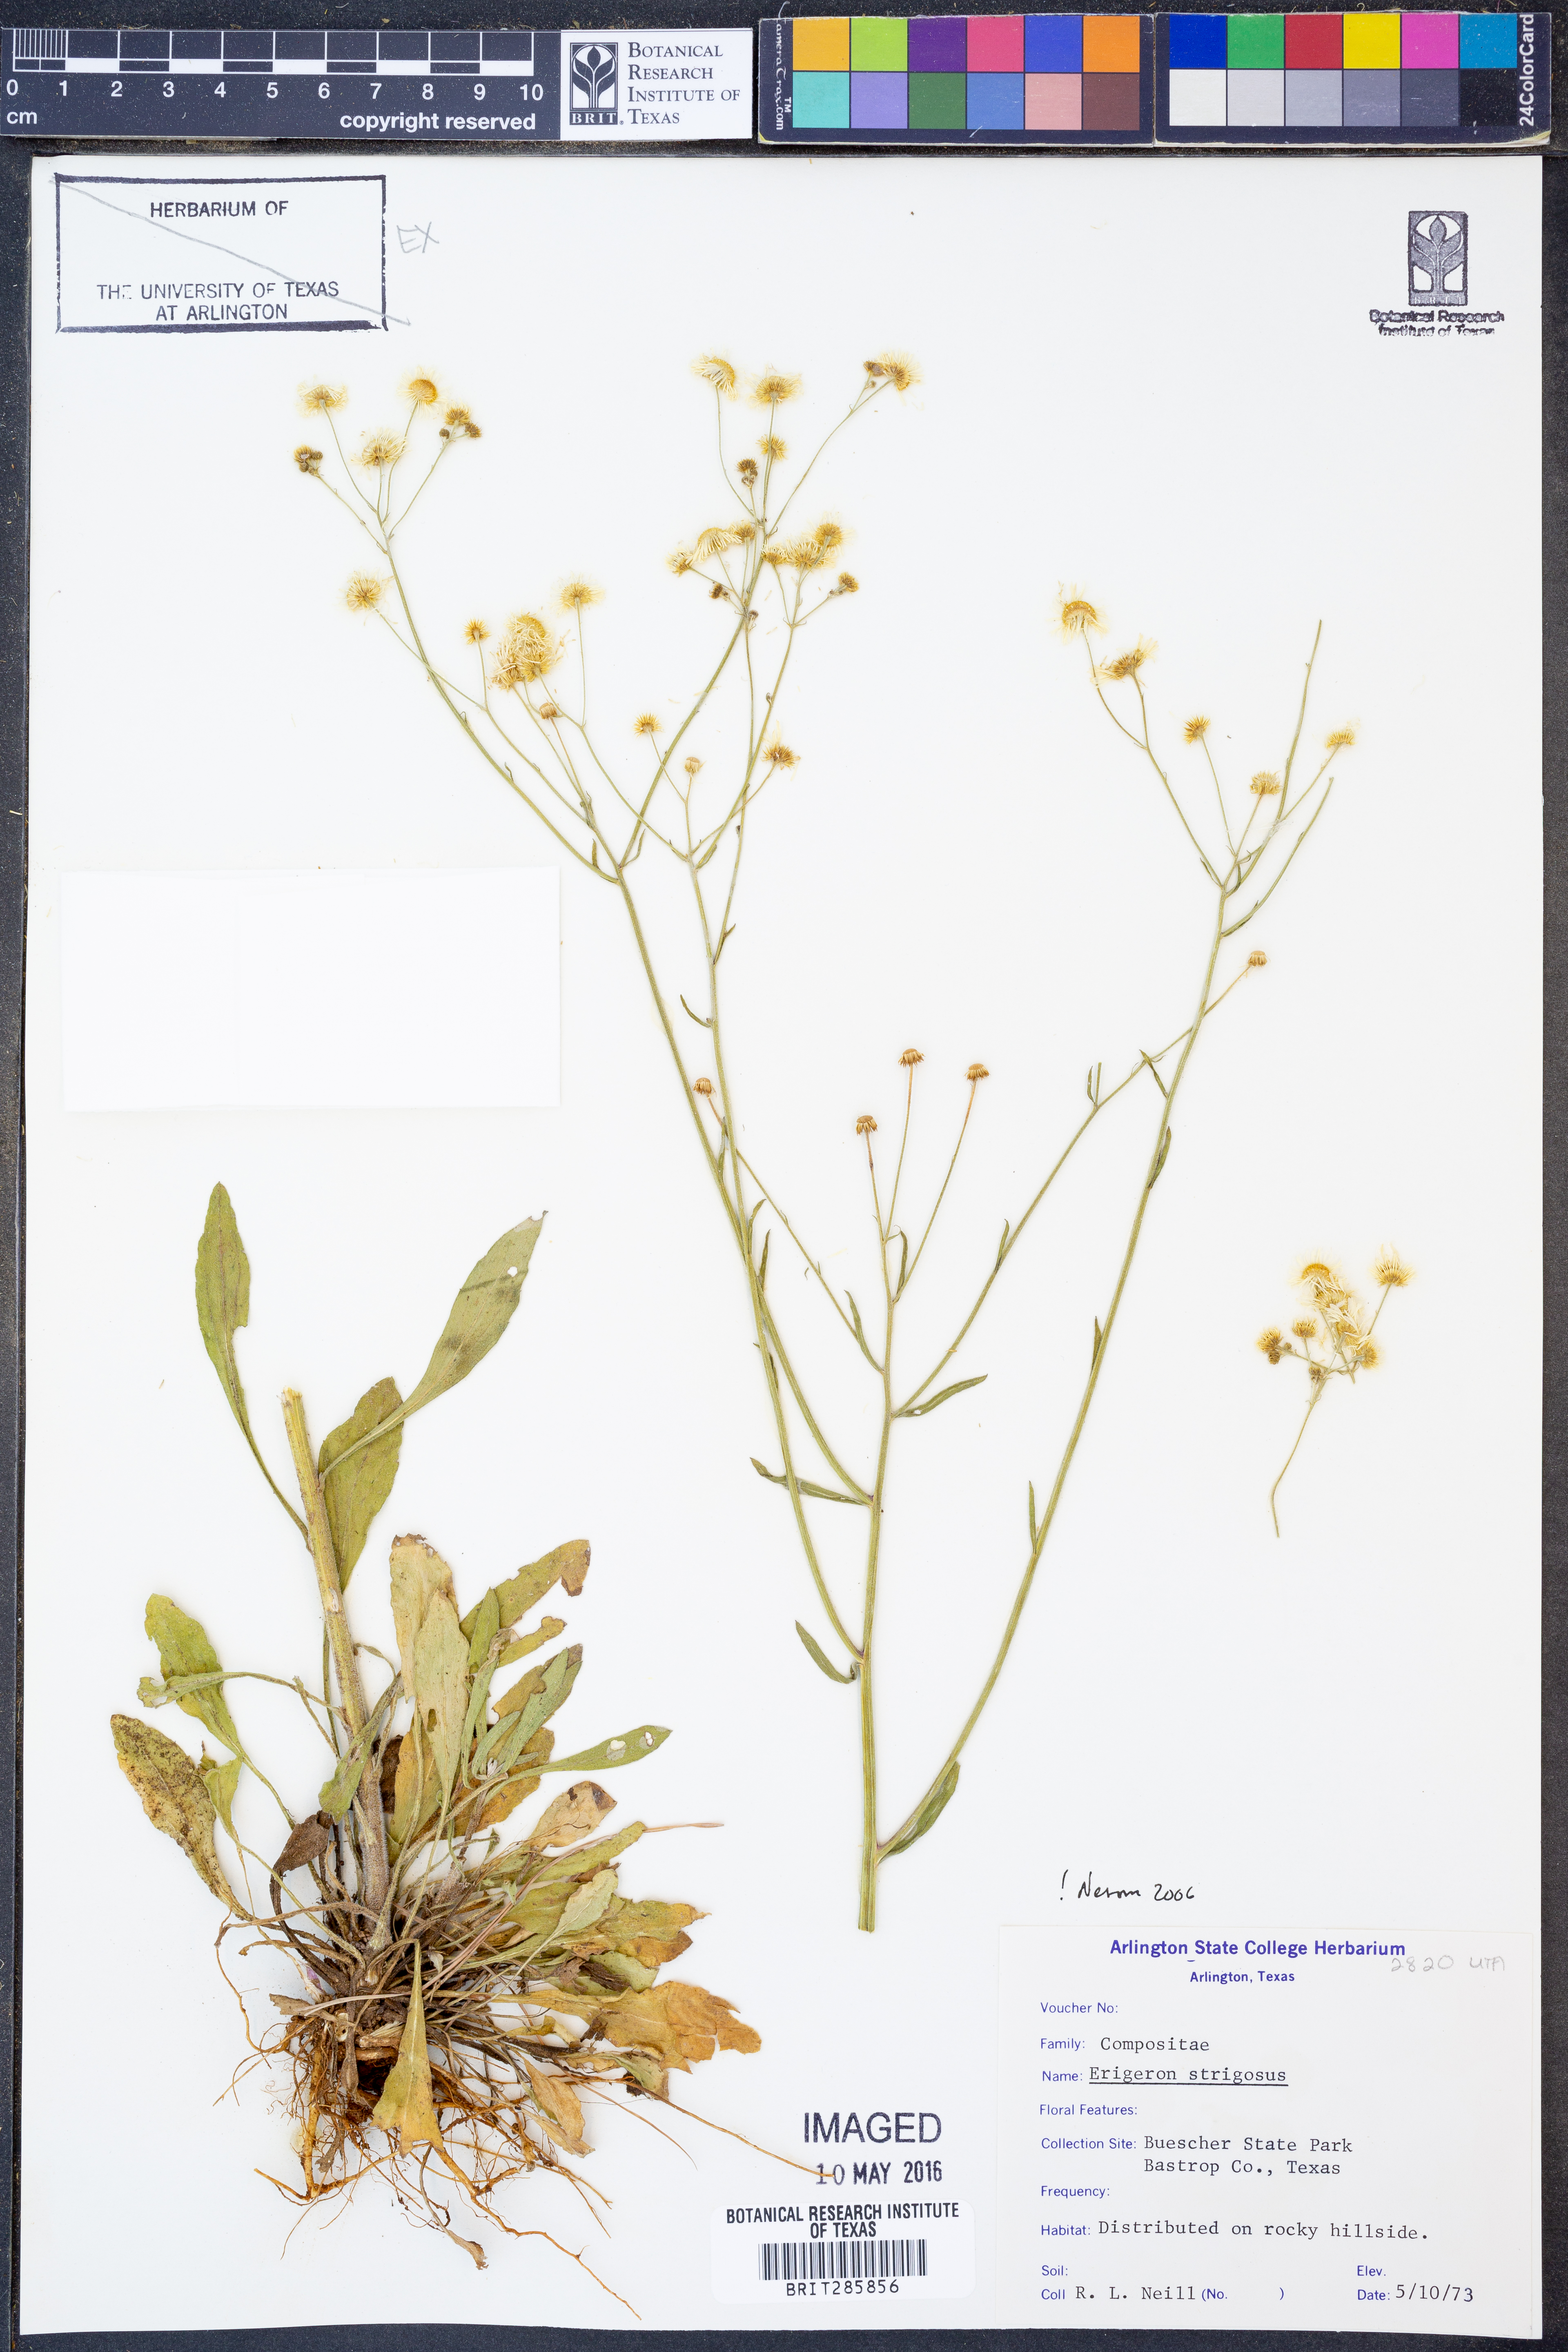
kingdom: Plantae
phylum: Tracheophyta
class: Magnoliopsida
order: Asterales
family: Asteraceae
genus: Erigeron
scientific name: Erigeron strigosus
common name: Common eastern fleabane
